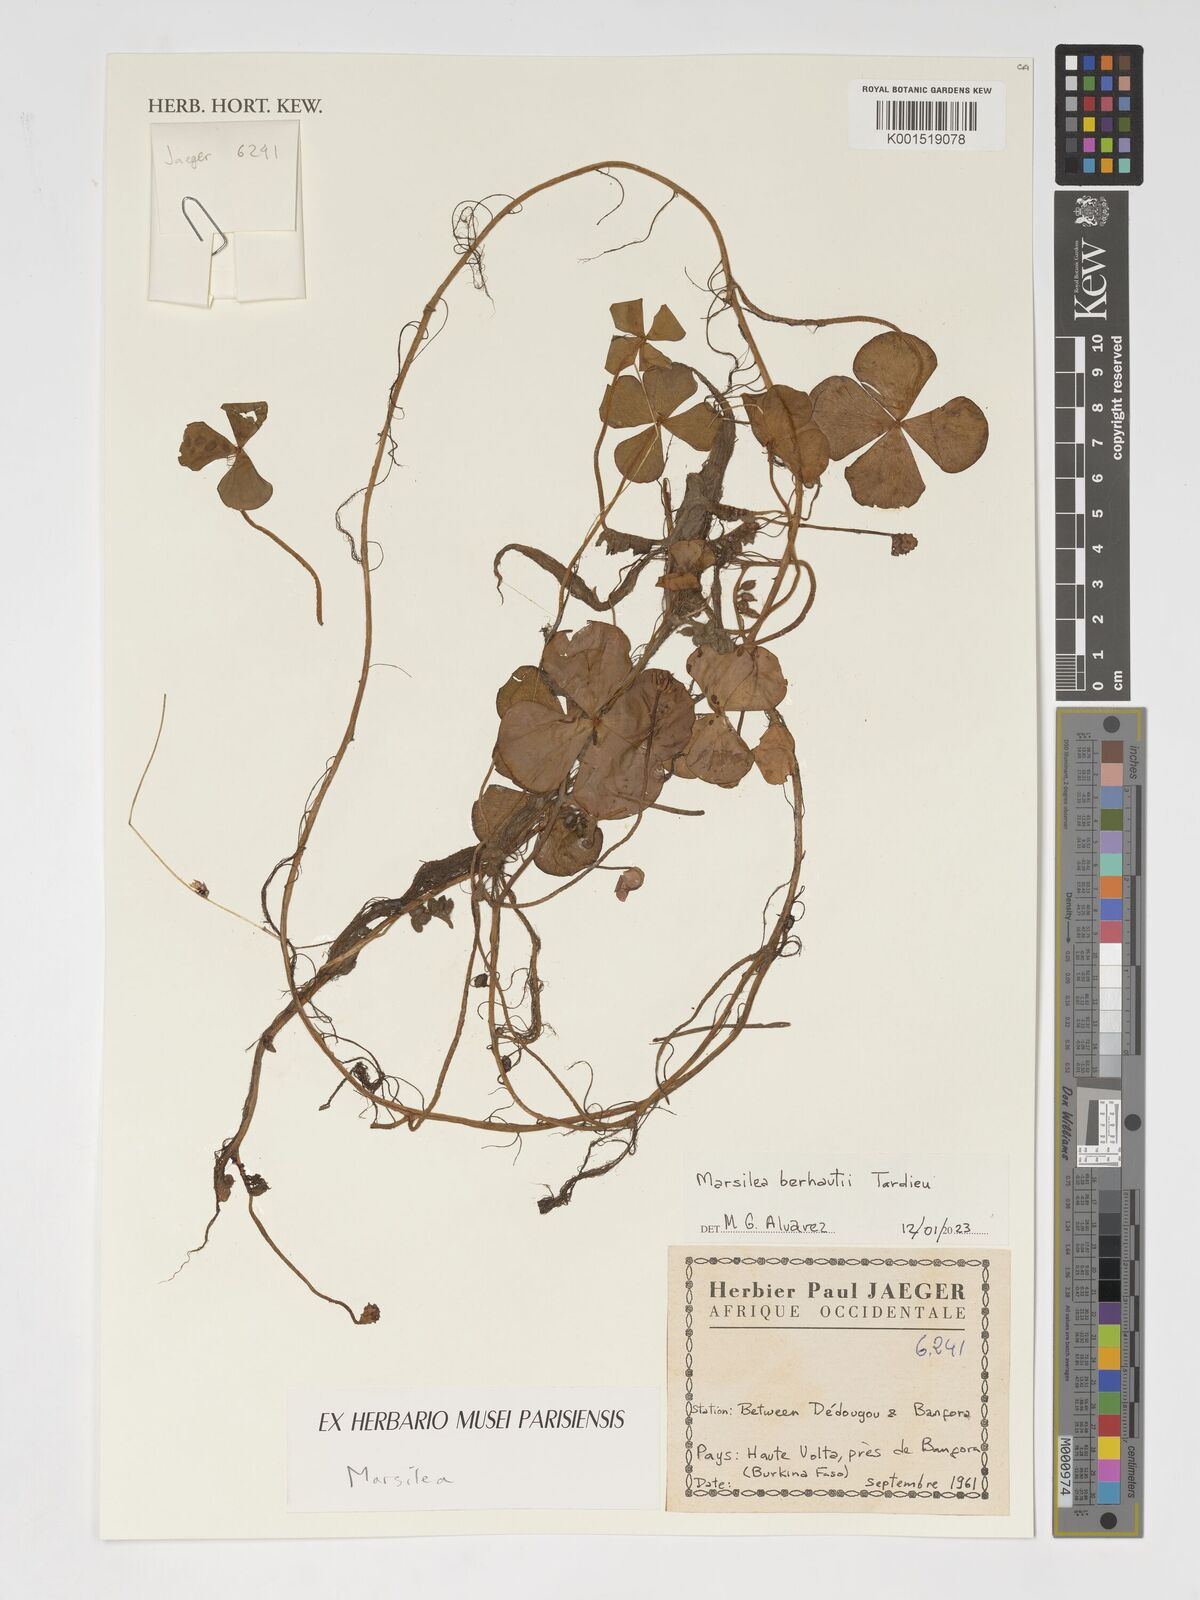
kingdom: Plantae
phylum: Tracheophyta
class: Polypodiopsida
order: Salviniales
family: Marsileaceae
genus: Marsilea
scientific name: Marsilea berhautii
